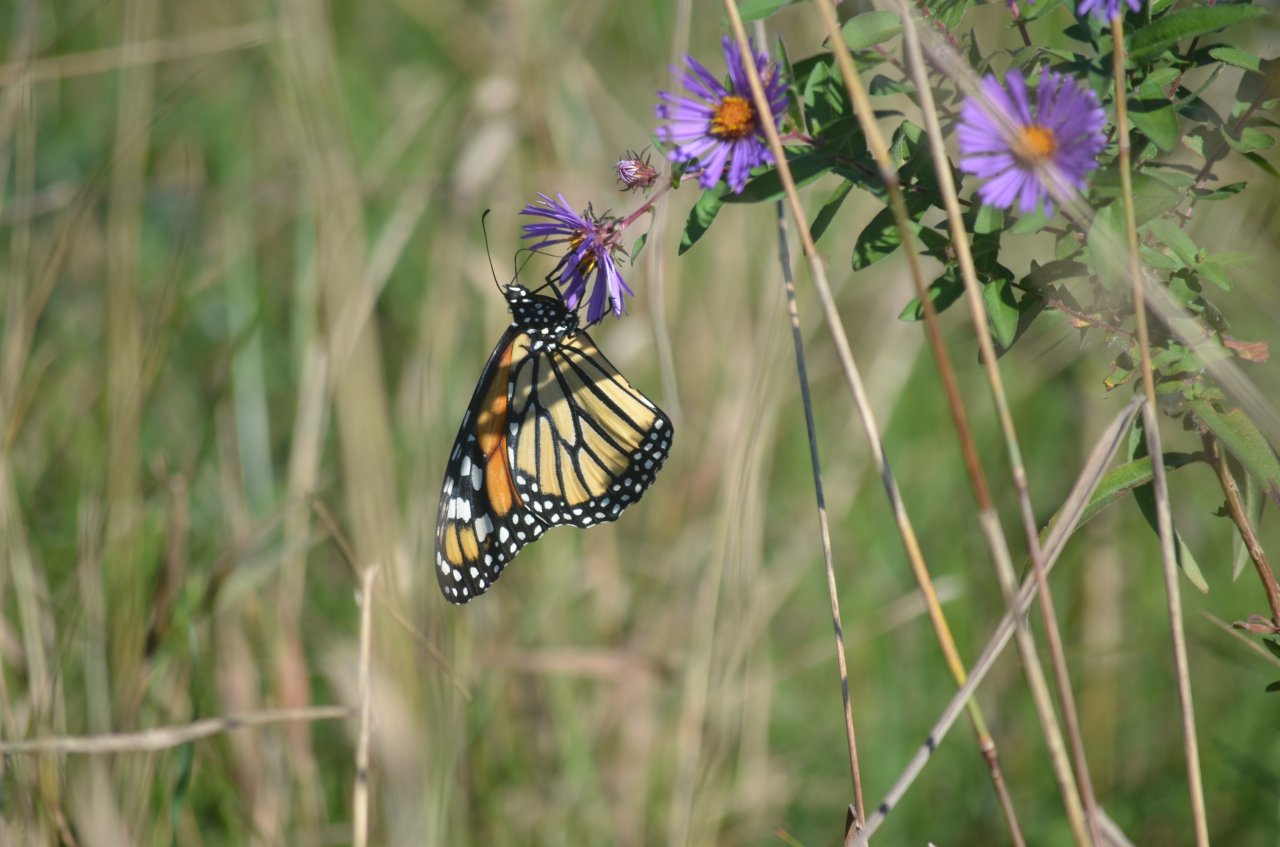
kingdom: Animalia
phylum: Arthropoda
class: Insecta
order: Lepidoptera
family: Nymphalidae
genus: Danaus
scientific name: Danaus plexippus
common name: Monarch
